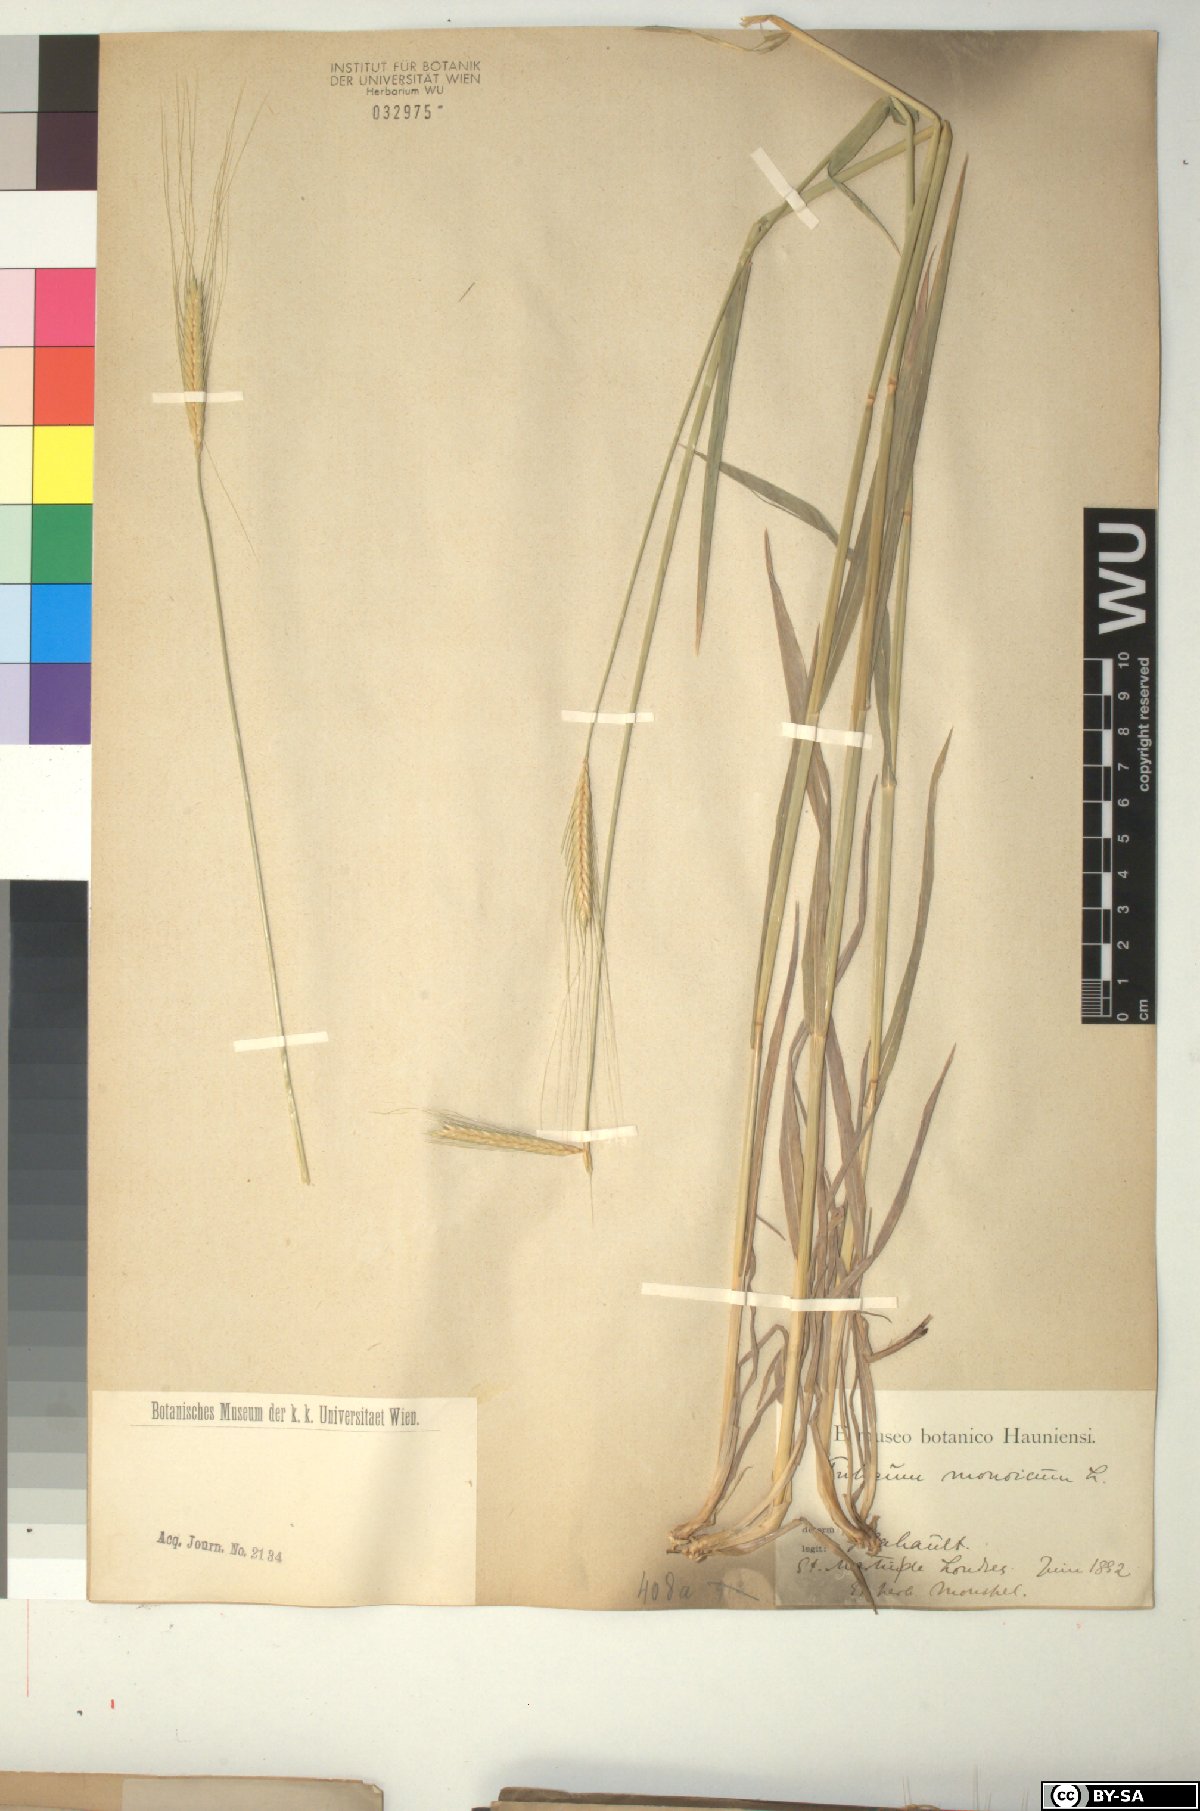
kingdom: Plantae
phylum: Tracheophyta
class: Liliopsida
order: Poales
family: Poaceae
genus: Triticum
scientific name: Triticum monococcum
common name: Einkorn
